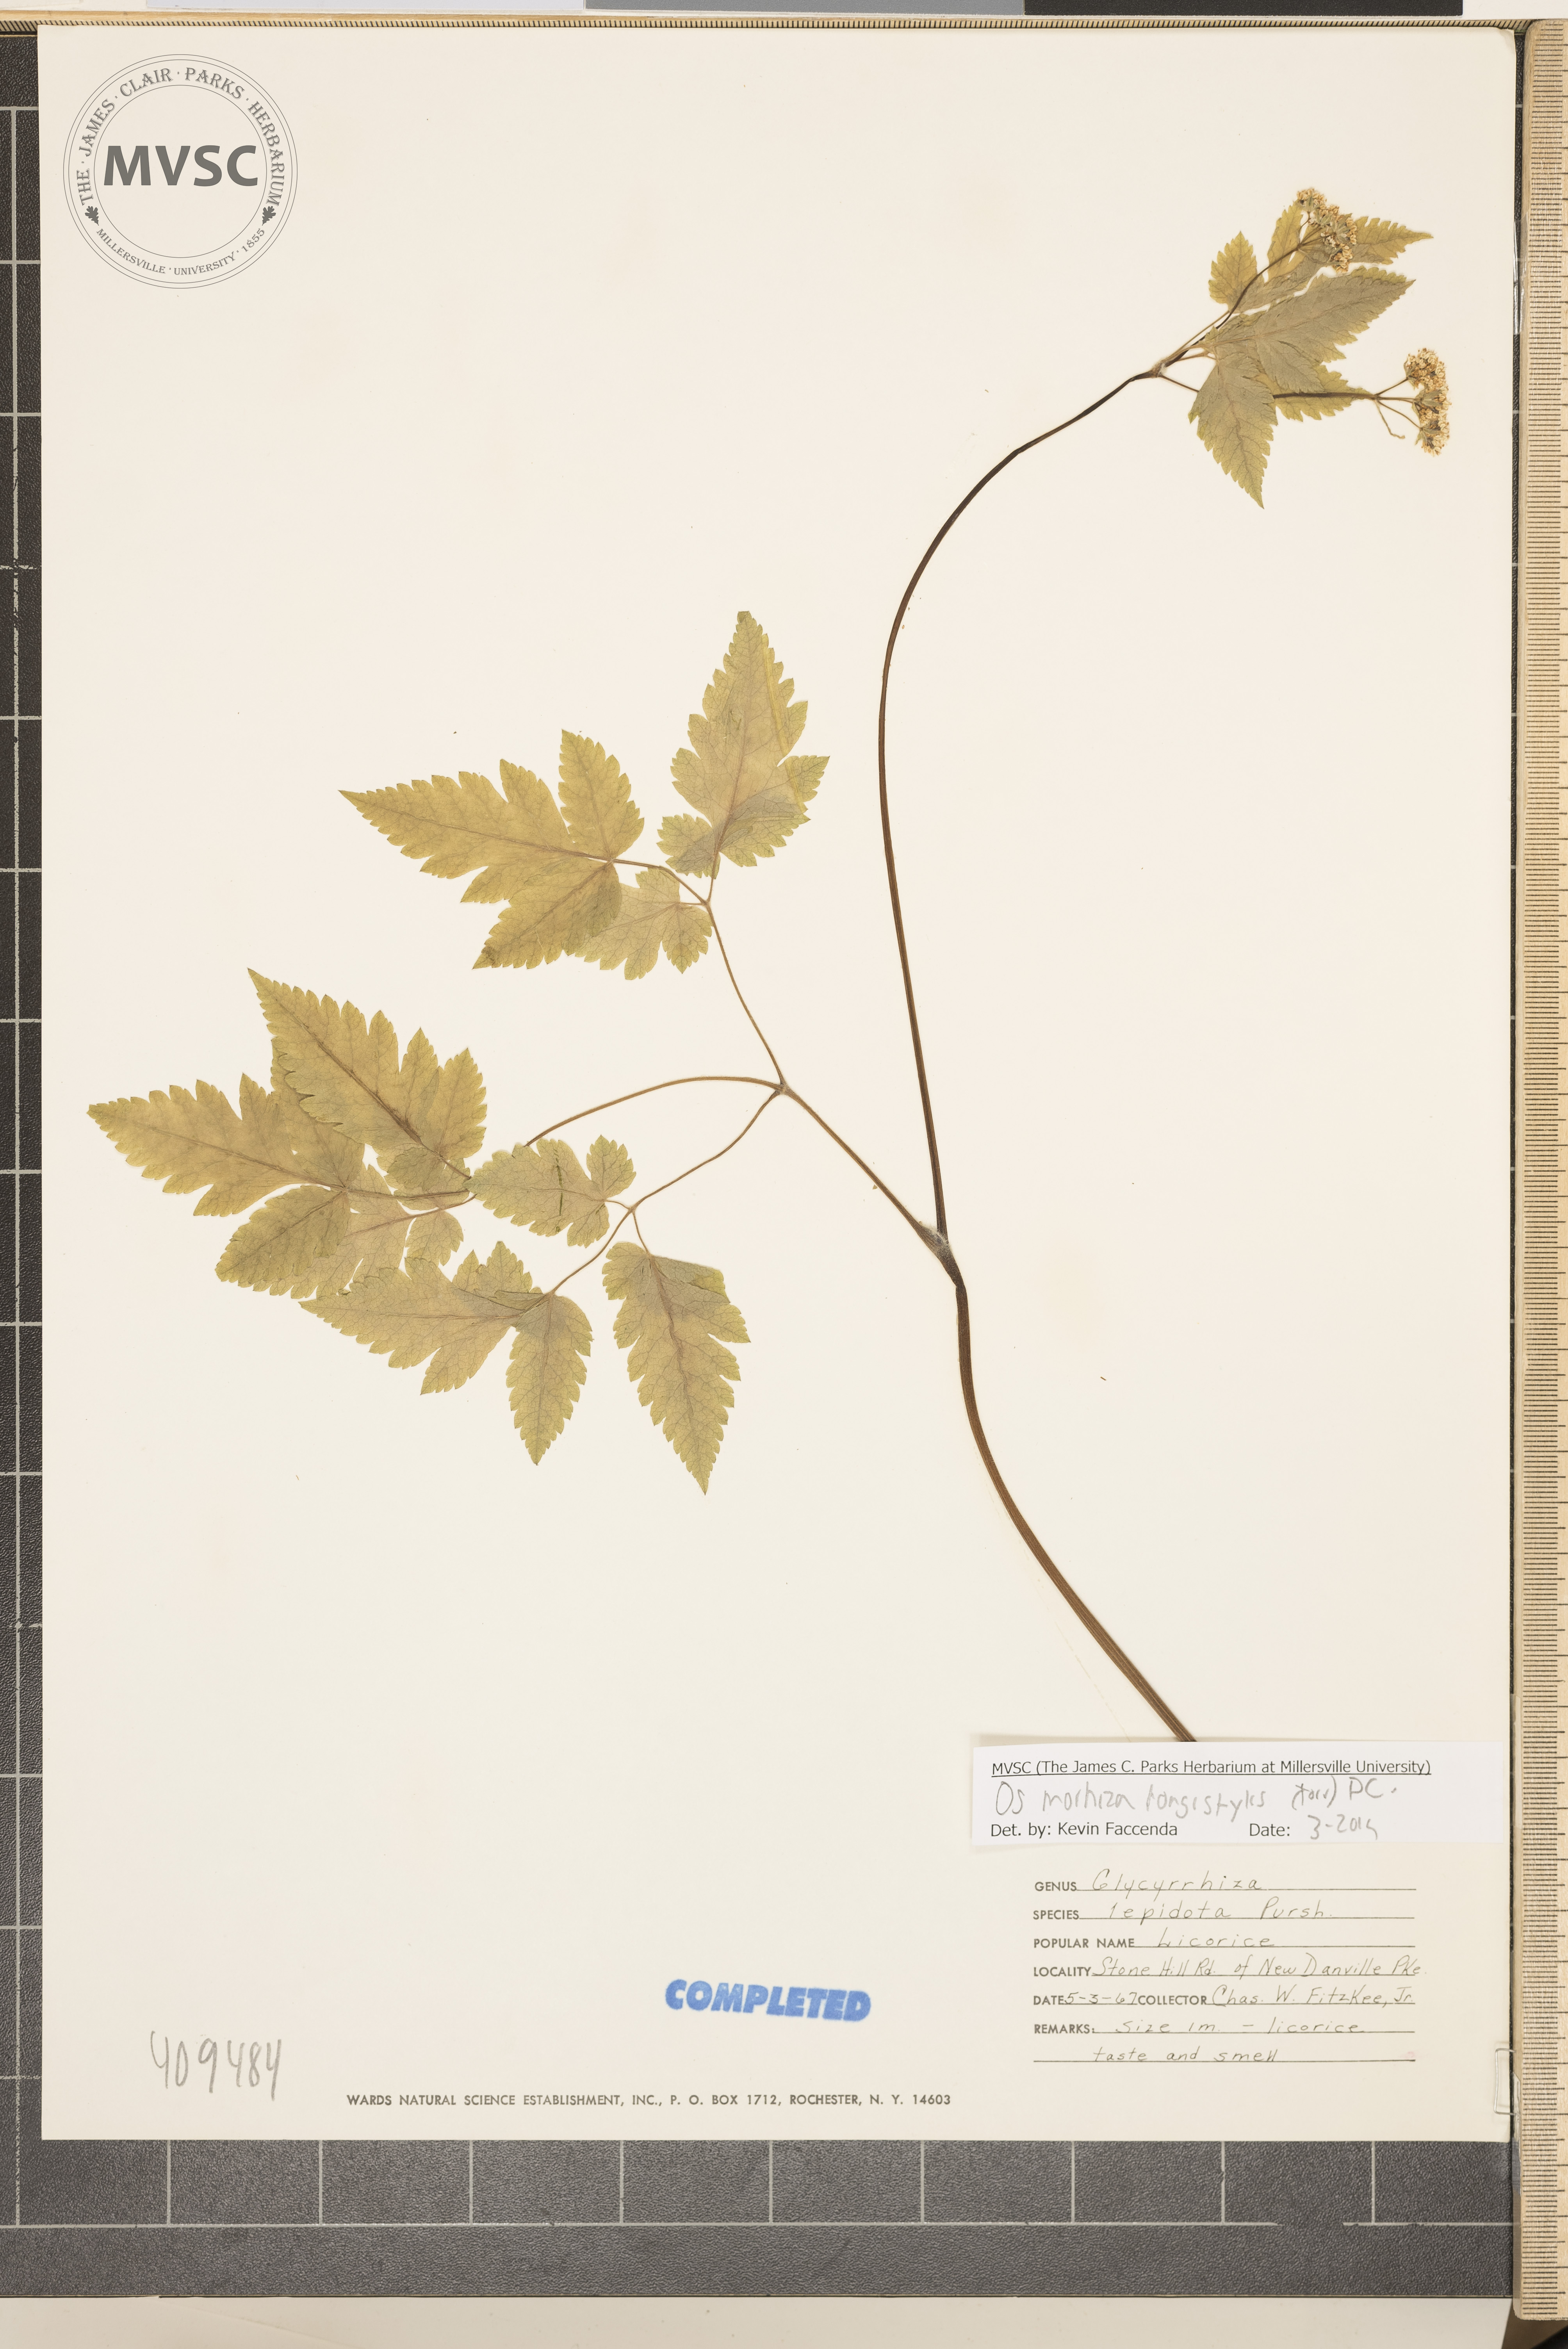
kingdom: Plantae
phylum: Tracheophyta
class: Magnoliopsida
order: Apiales
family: Apiaceae
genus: Osmorhiza
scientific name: Osmorhiza longistylis
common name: Smooth sweet cicely
